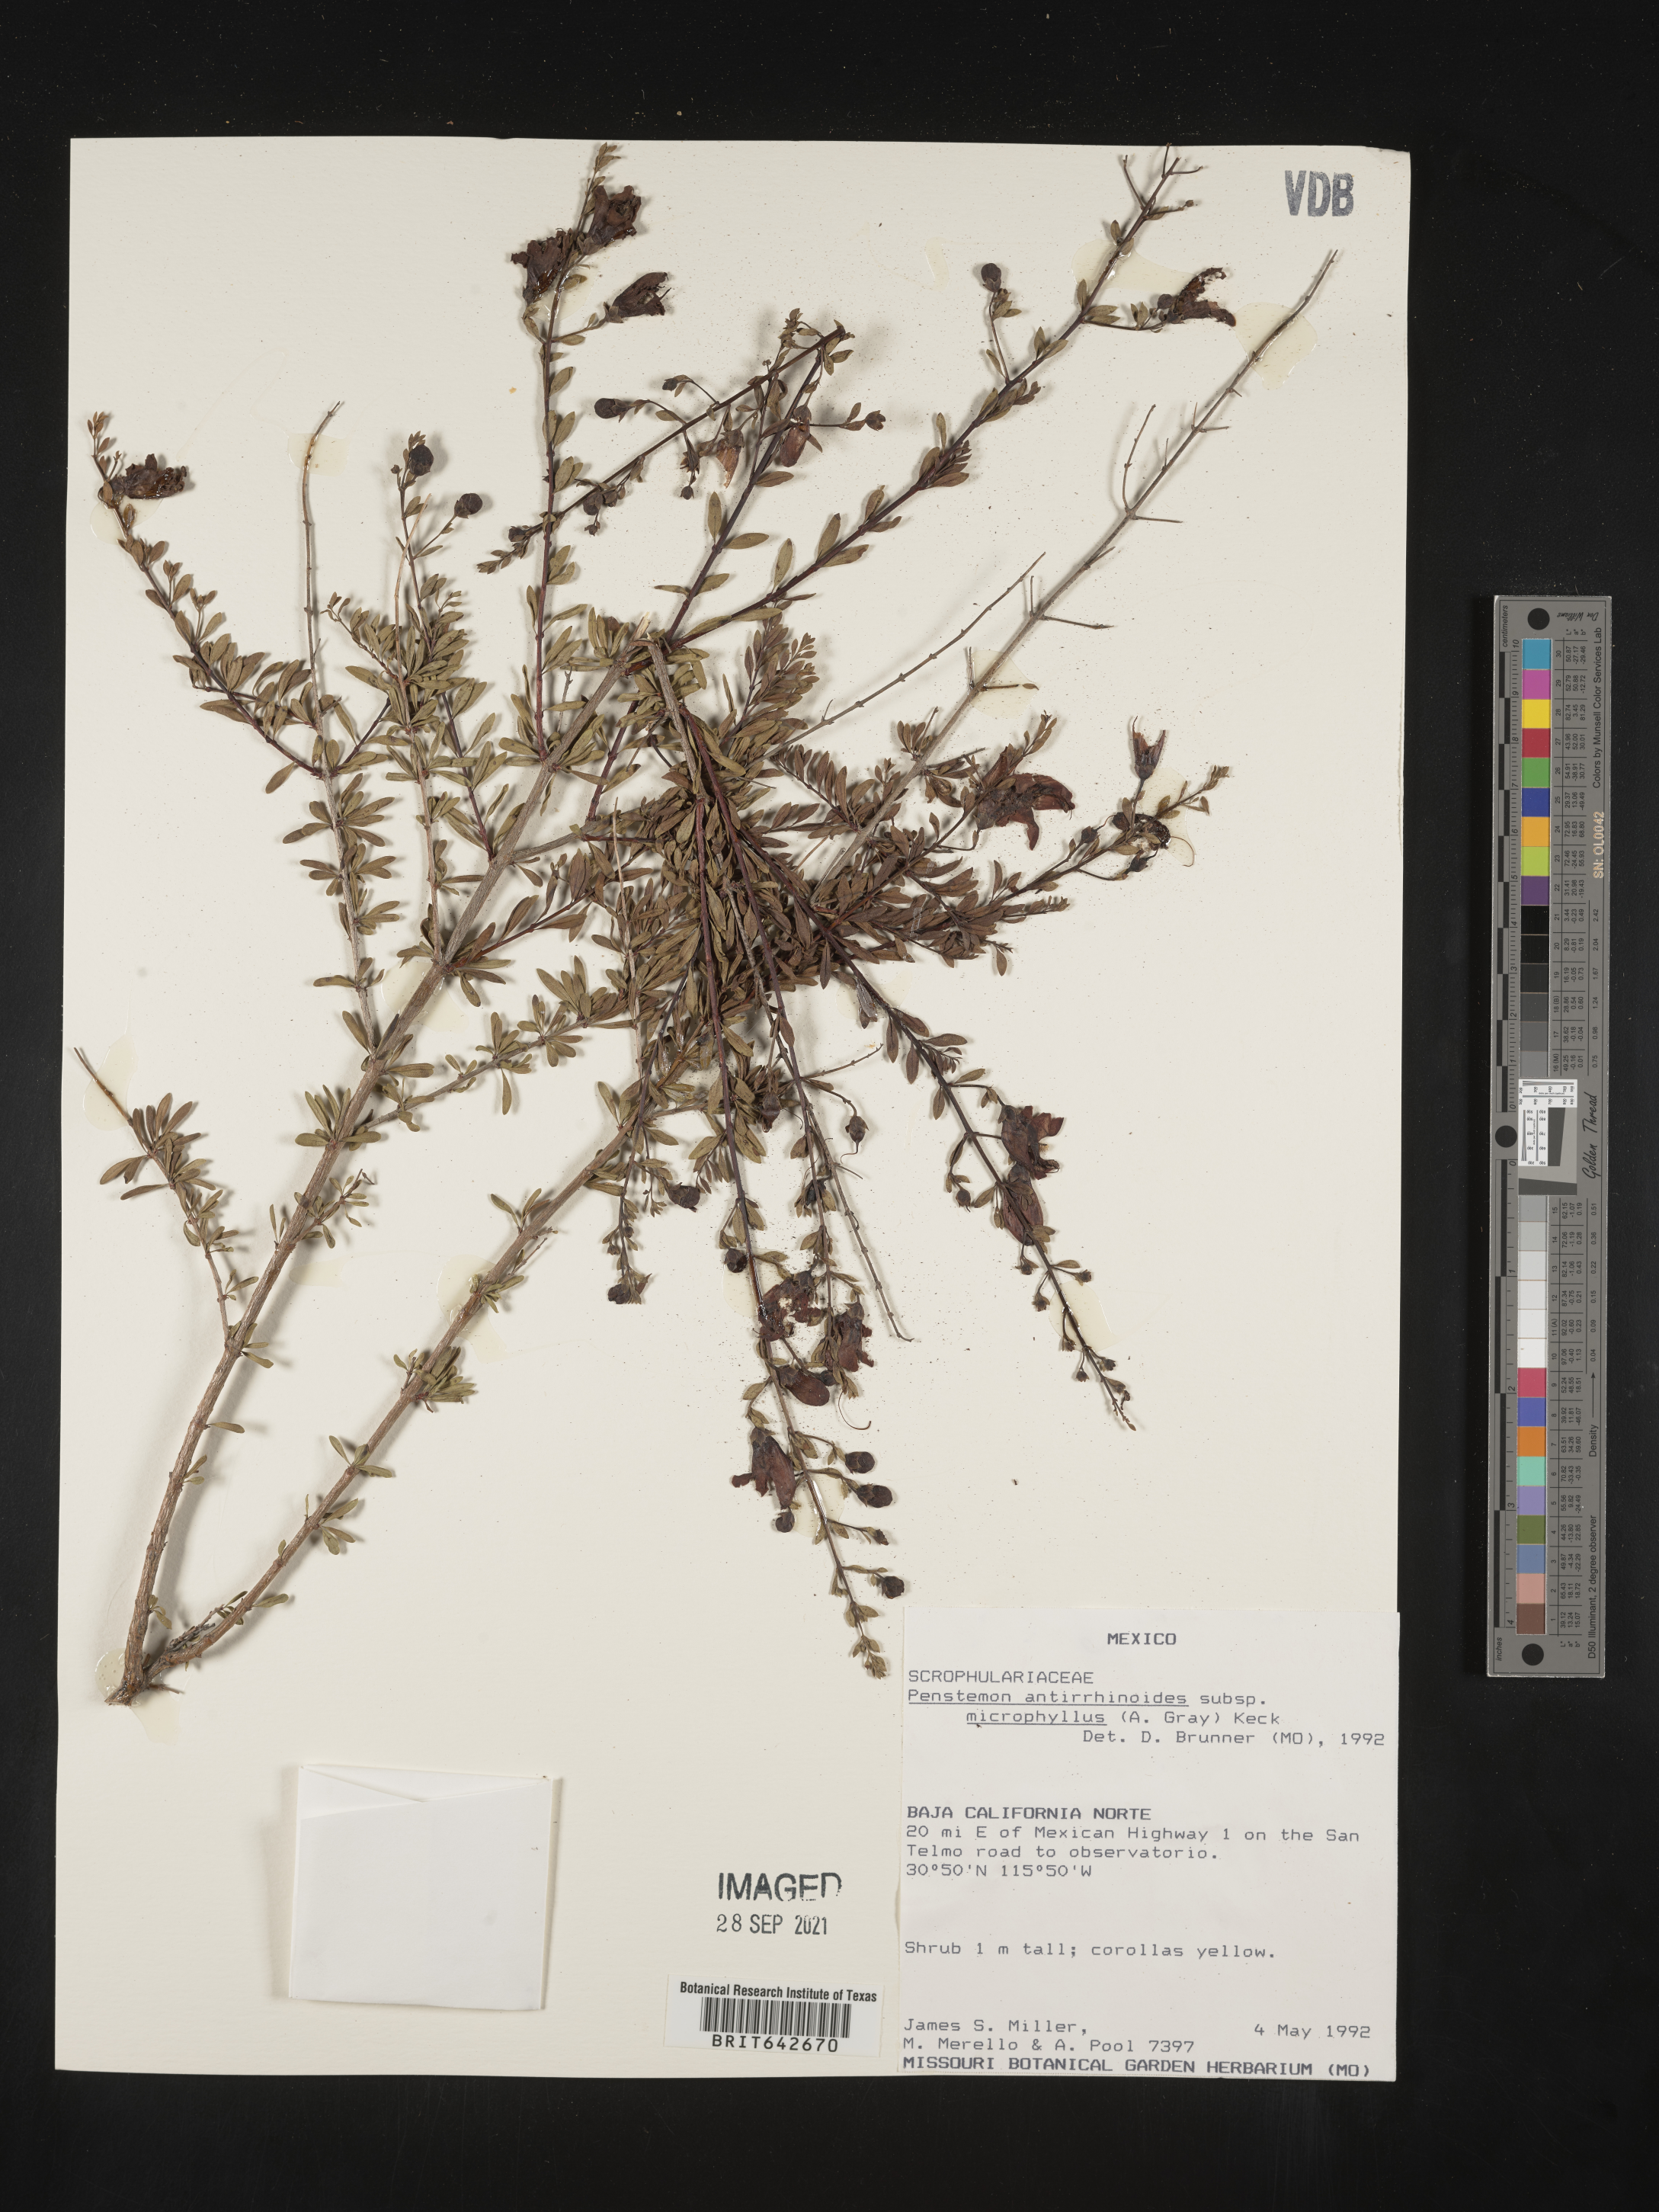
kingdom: Plantae
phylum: Tracheophyta
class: Magnoliopsida
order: Lamiales
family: Plantaginaceae
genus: Penstemon
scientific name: Penstemon
